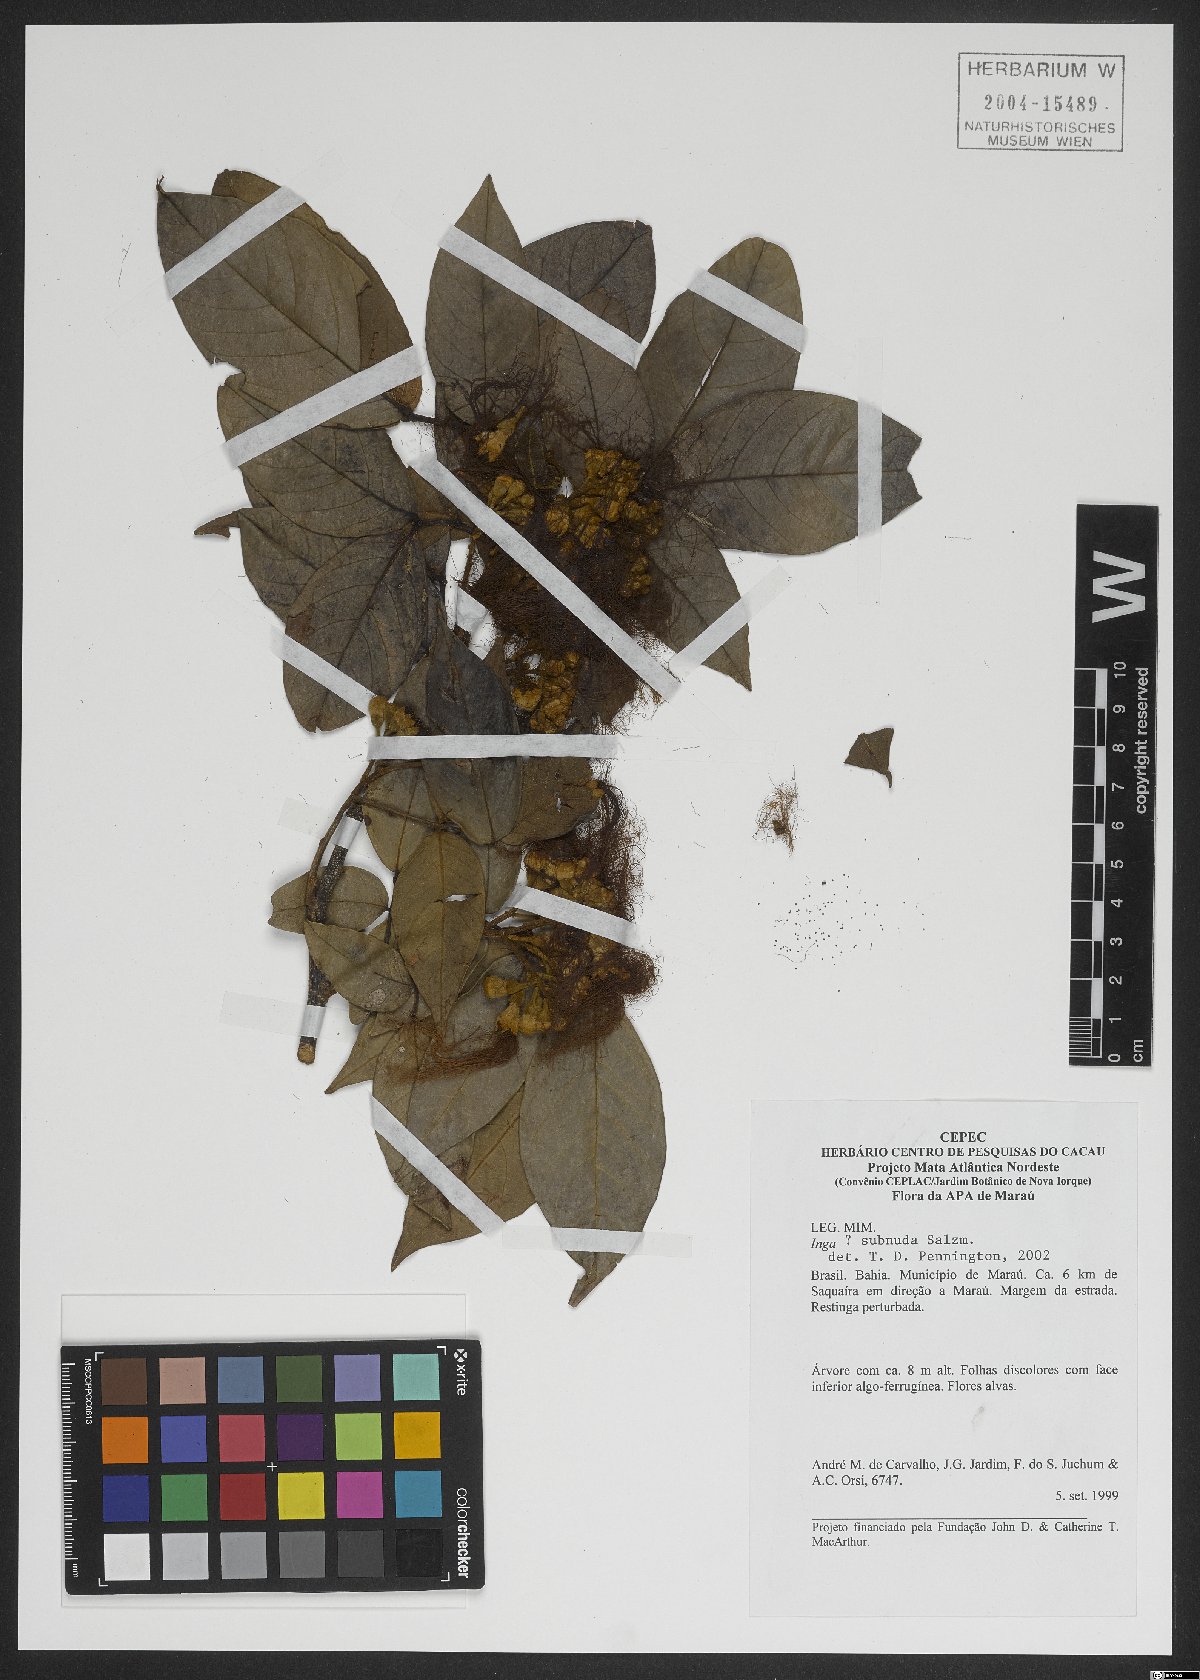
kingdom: Plantae
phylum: Tracheophyta
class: Magnoliopsida
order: Fabales
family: Fabaceae
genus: Inga
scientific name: Inga subnuda
